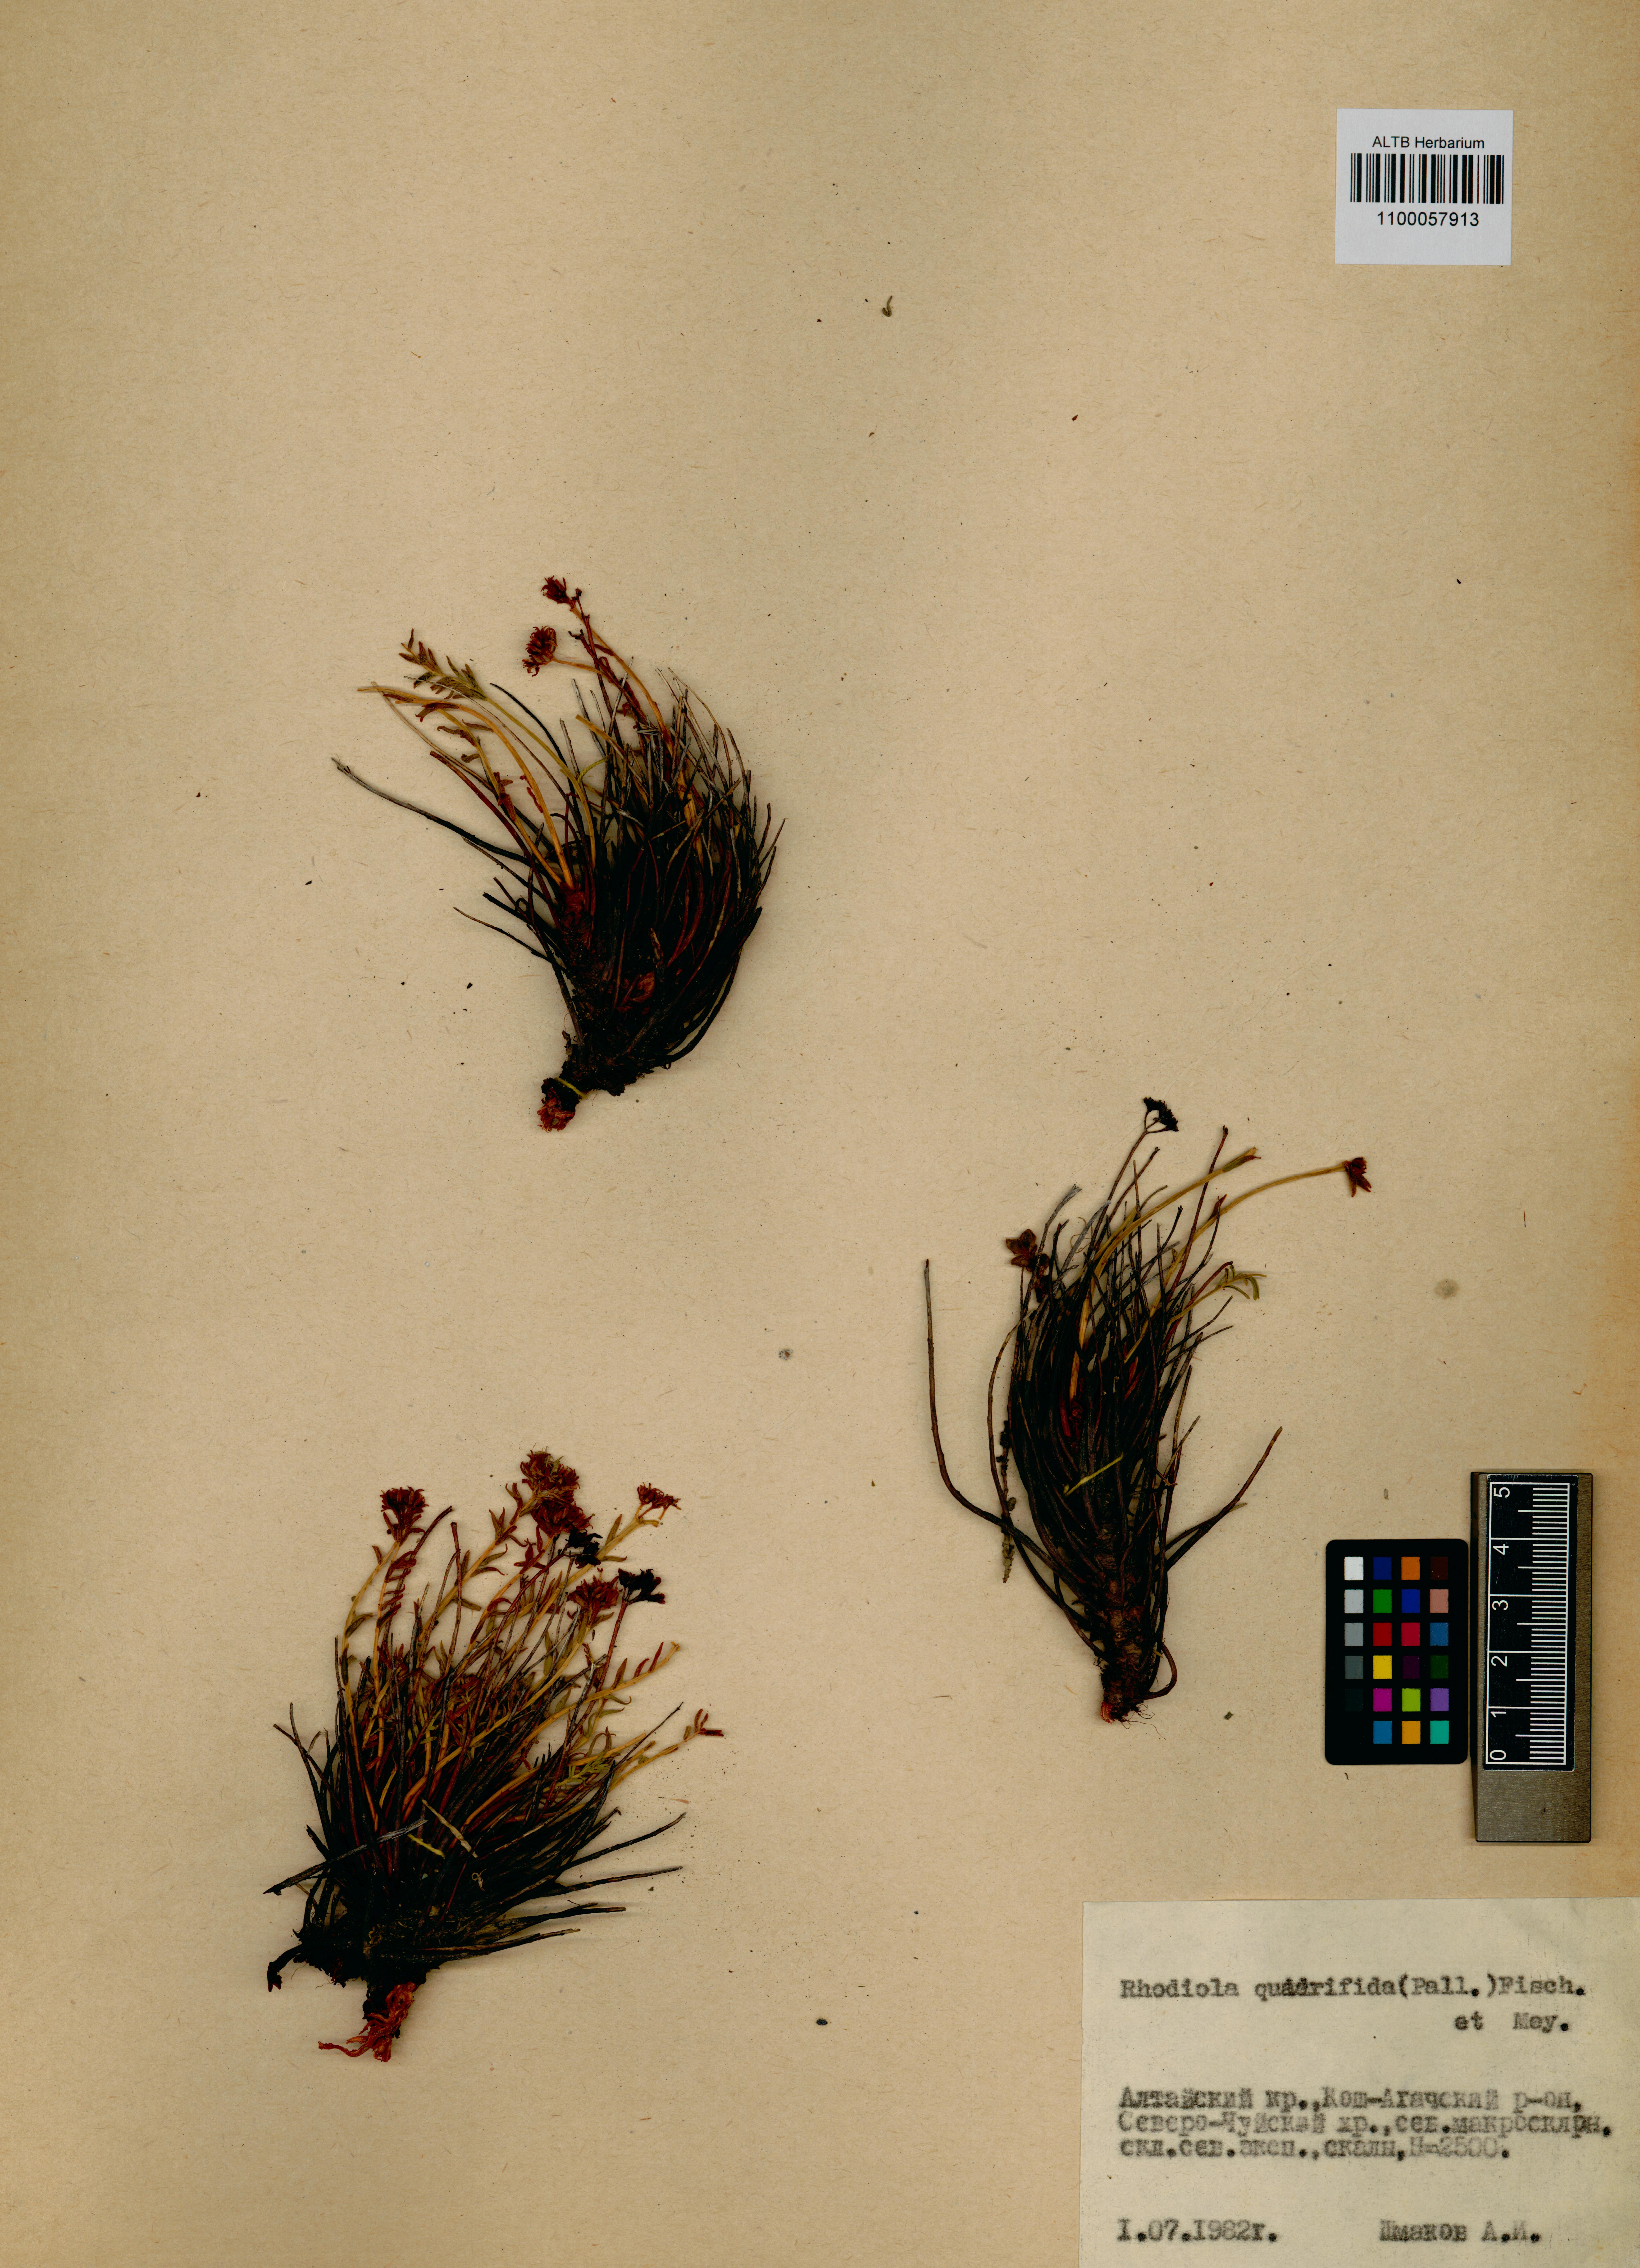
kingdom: Plantae
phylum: Tracheophyta
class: Magnoliopsida
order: Saxifragales
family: Crassulaceae
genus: Rhodiola
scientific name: Rhodiola quadrifida
